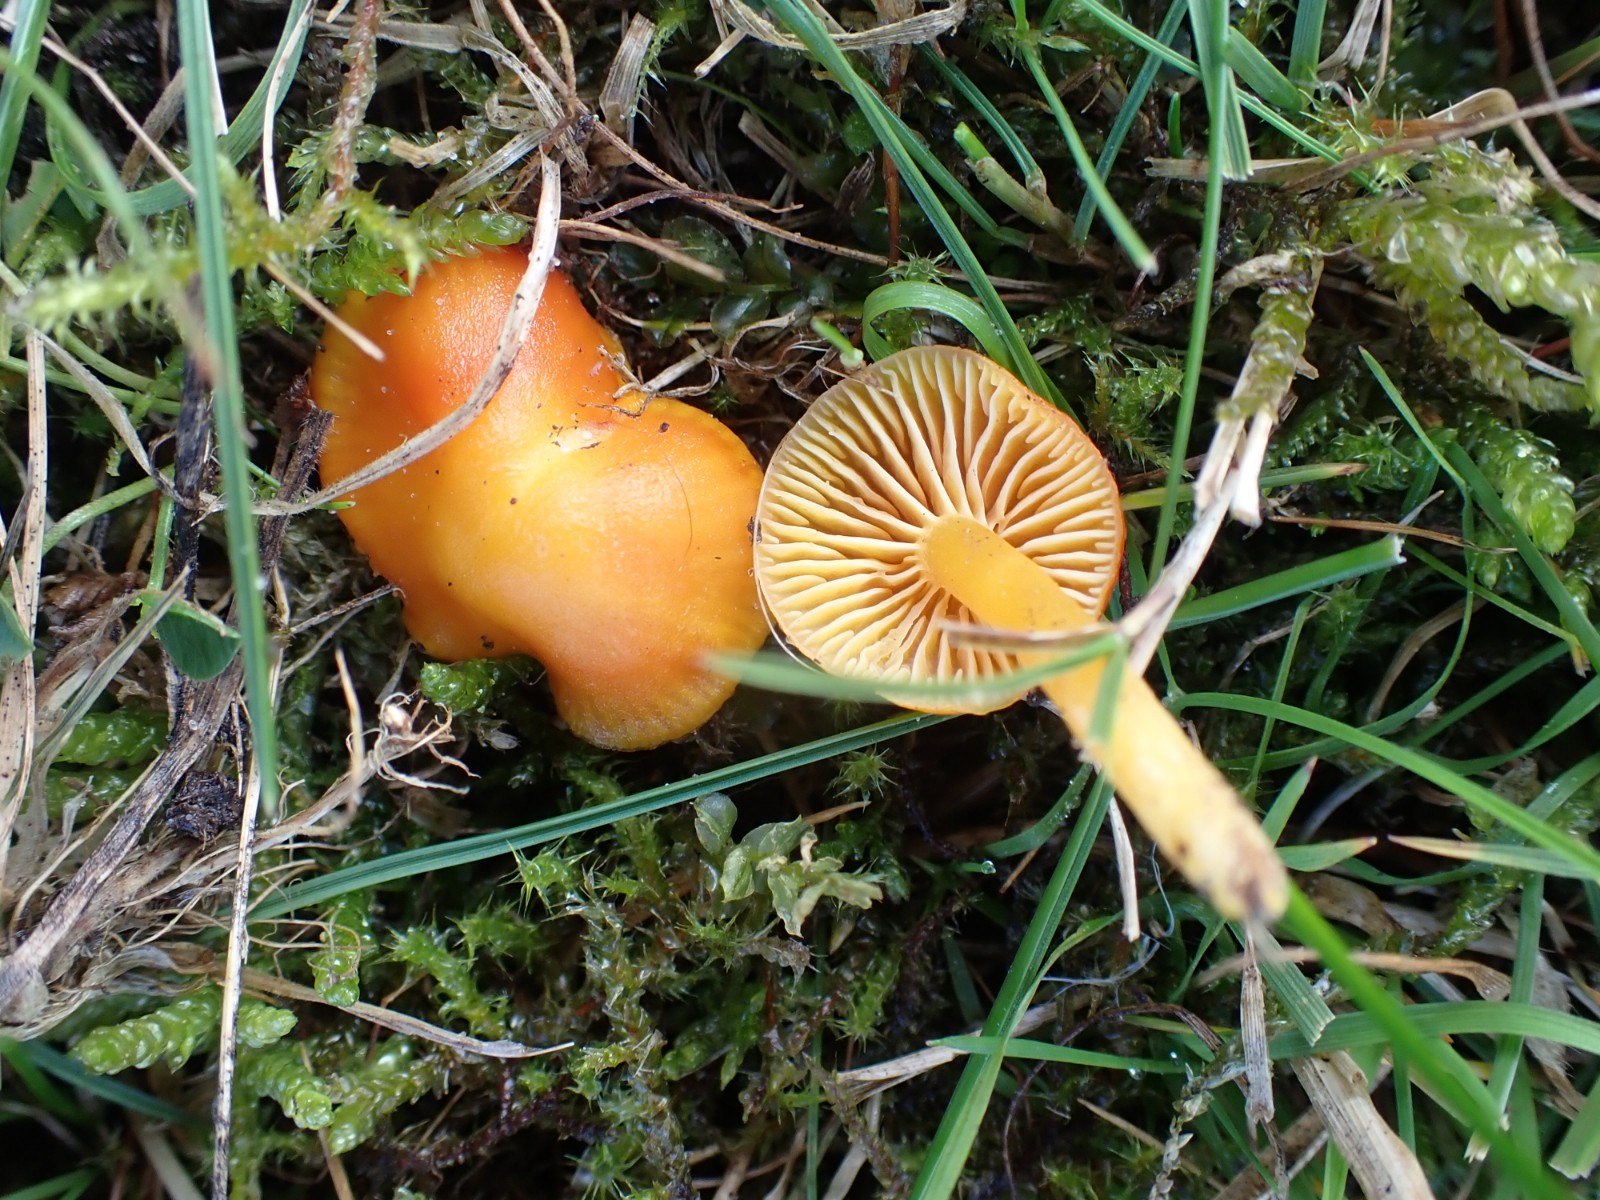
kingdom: Fungi
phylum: Basidiomycota
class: Agaricomycetes
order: Agaricales
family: Hygrophoraceae
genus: Hygrocybe
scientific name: Hygrocybe ceracea
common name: voksgul vokshat
